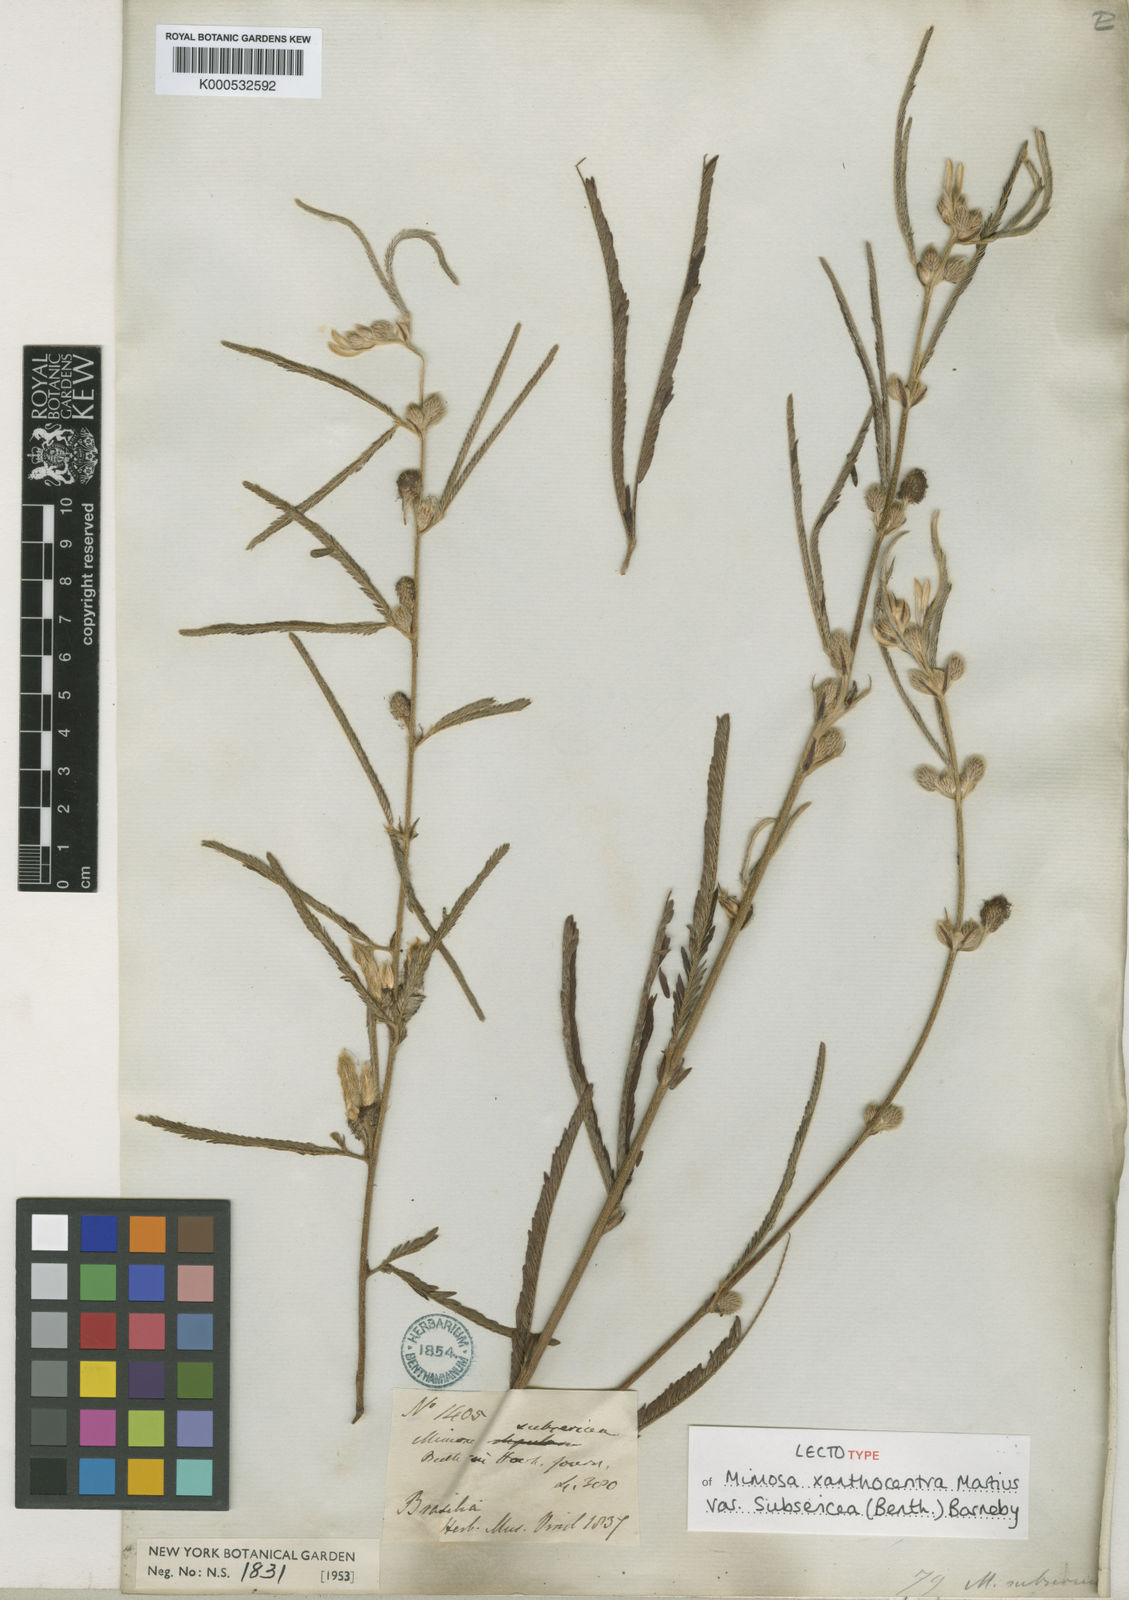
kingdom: Plantae
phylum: Tracheophyta
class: Magnoliopsida
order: Fabales
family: Fabaceae
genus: Mimosa
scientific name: Mimosa xanthocentra
